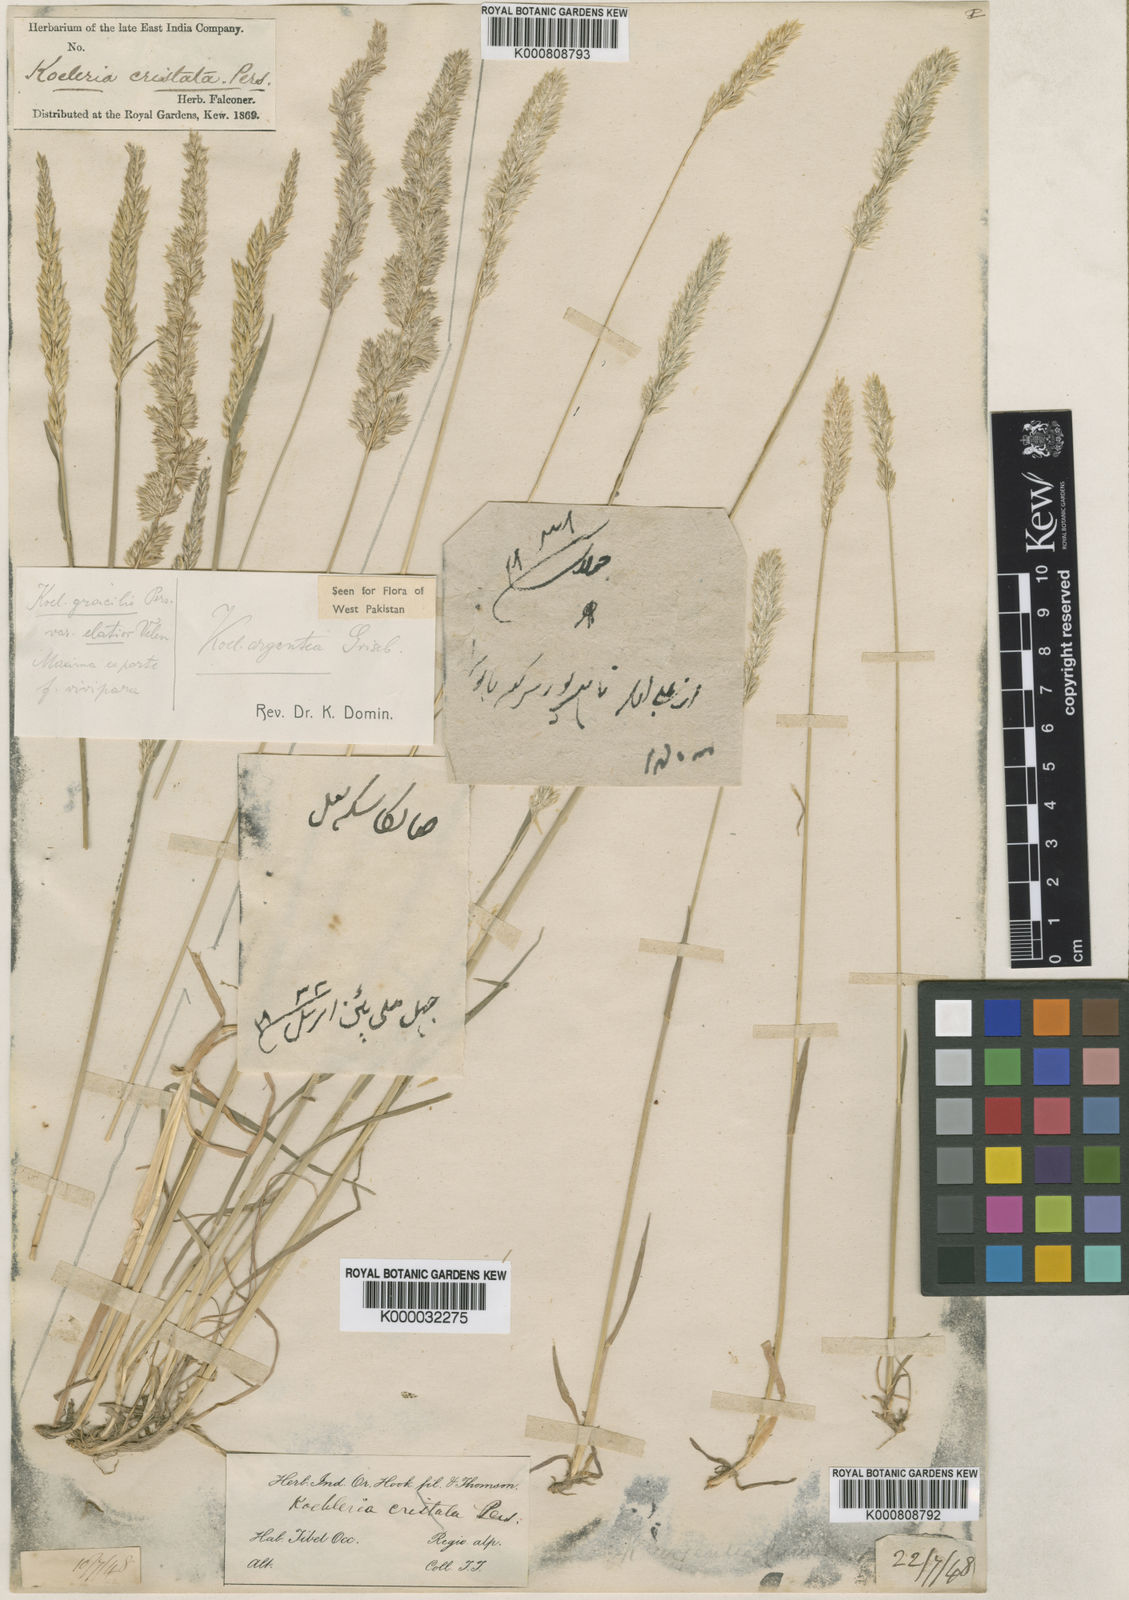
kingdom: Plantae
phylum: Tracheophyta
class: Liliopsida
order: Poales
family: Poaceae
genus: Koeleria
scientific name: Koeleria argentea
